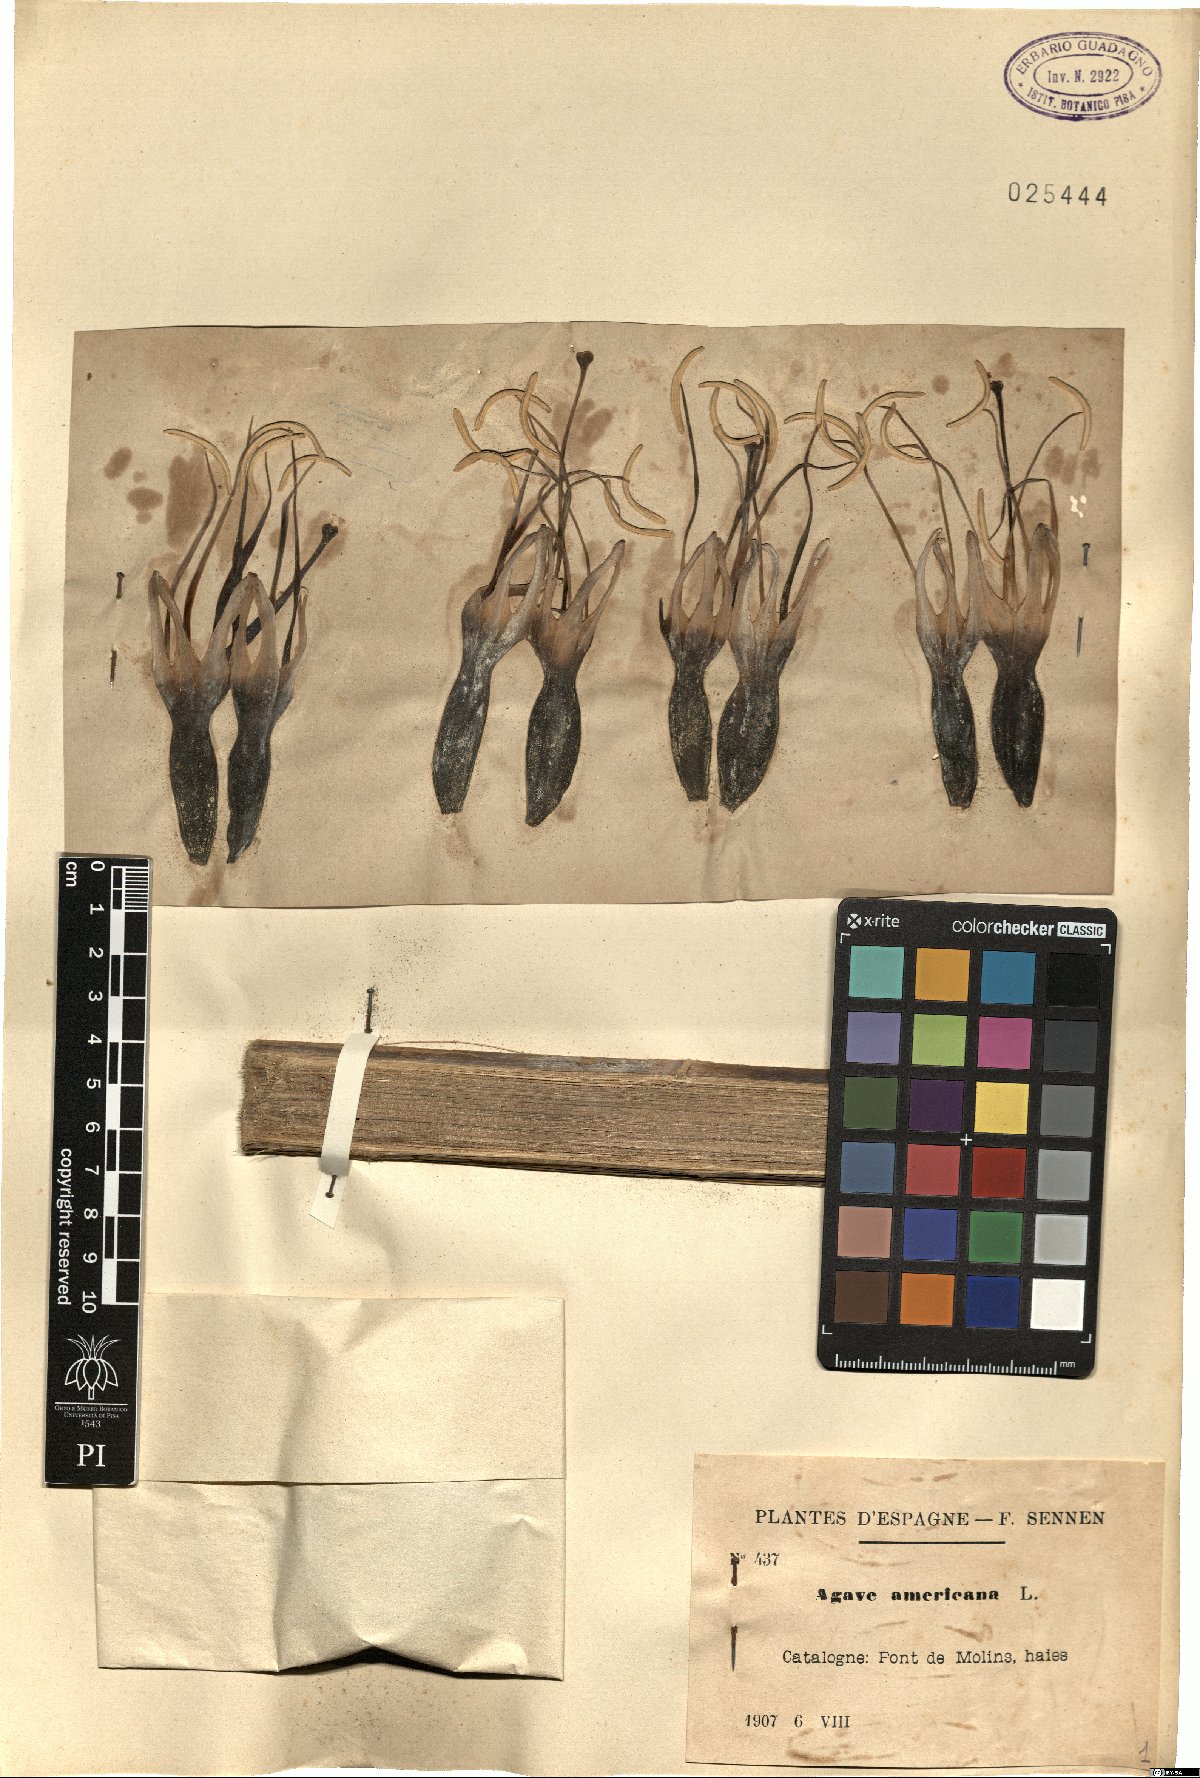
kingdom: Plantae
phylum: Tracheophyta
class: Liliopsida
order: Asparagales
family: Asparagaceae
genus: Agave
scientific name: Agave americana
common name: Centuryplant
